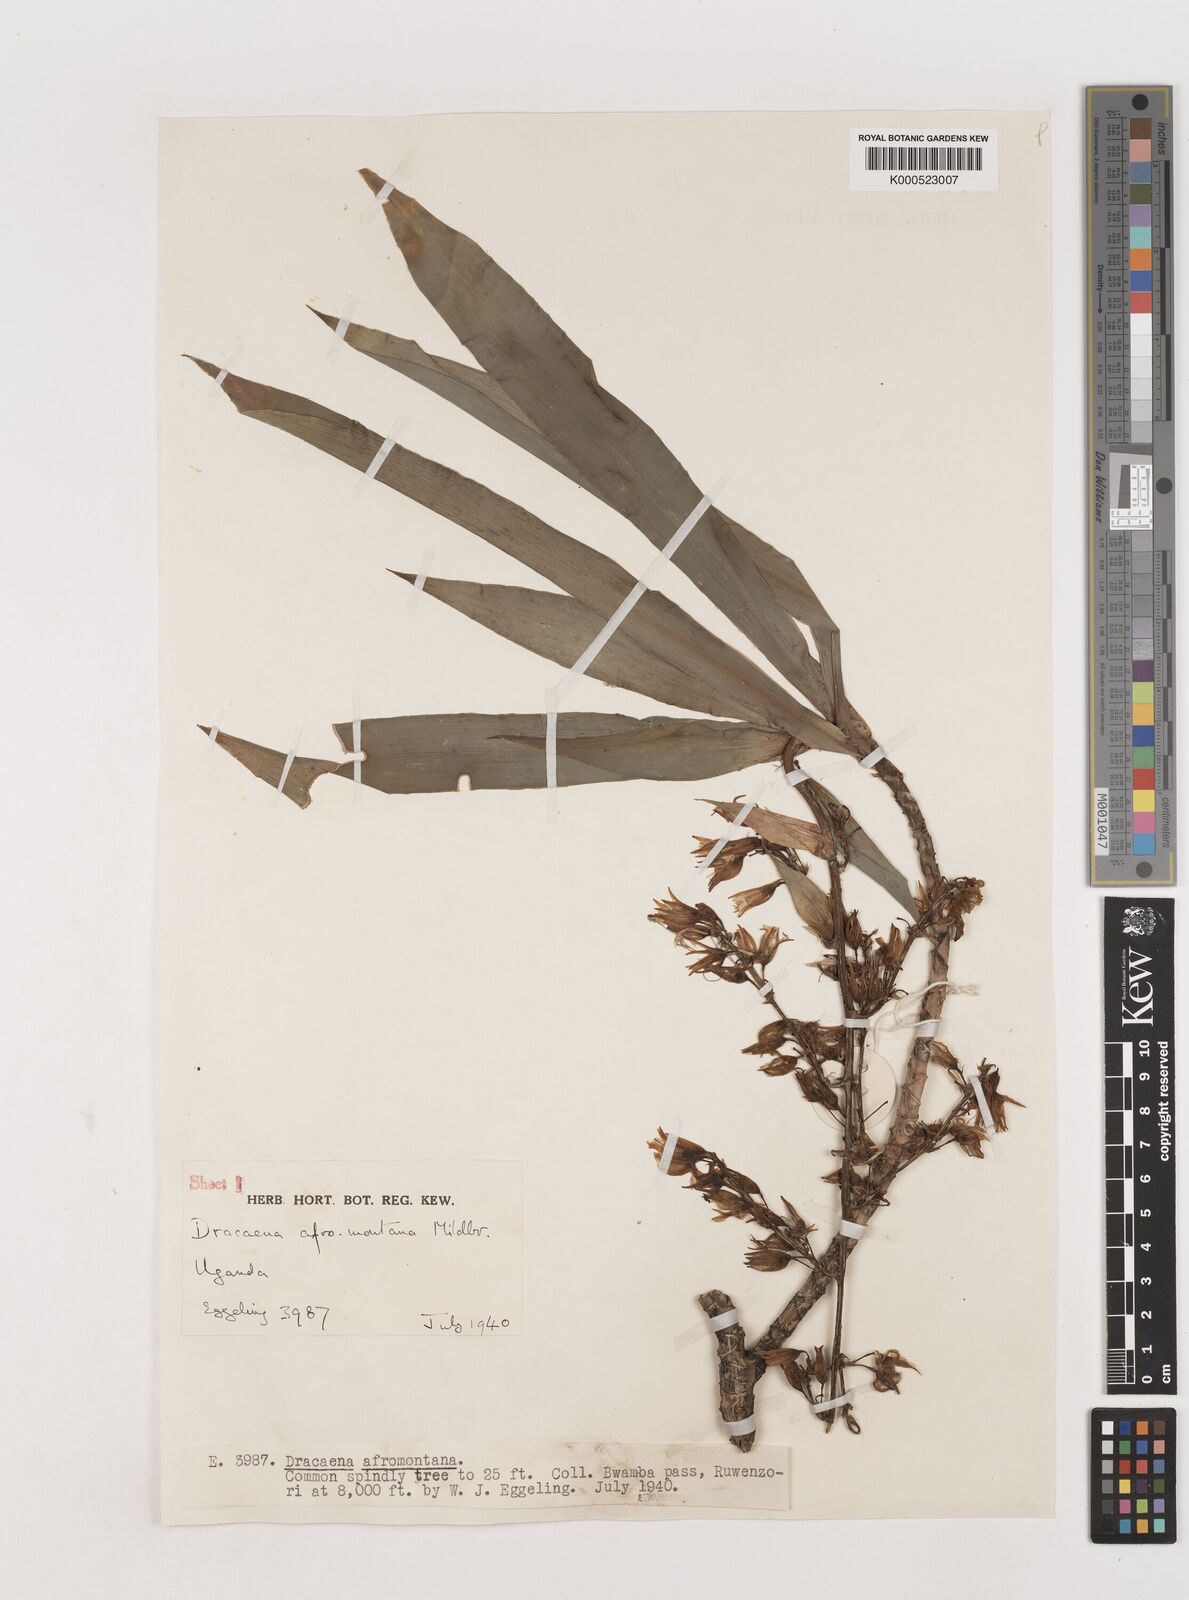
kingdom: Plantae
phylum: Tracheophyta
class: Liliopsida
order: Asparagales
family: Asparagaceae
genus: Dracaena
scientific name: Dracaena afromontana
